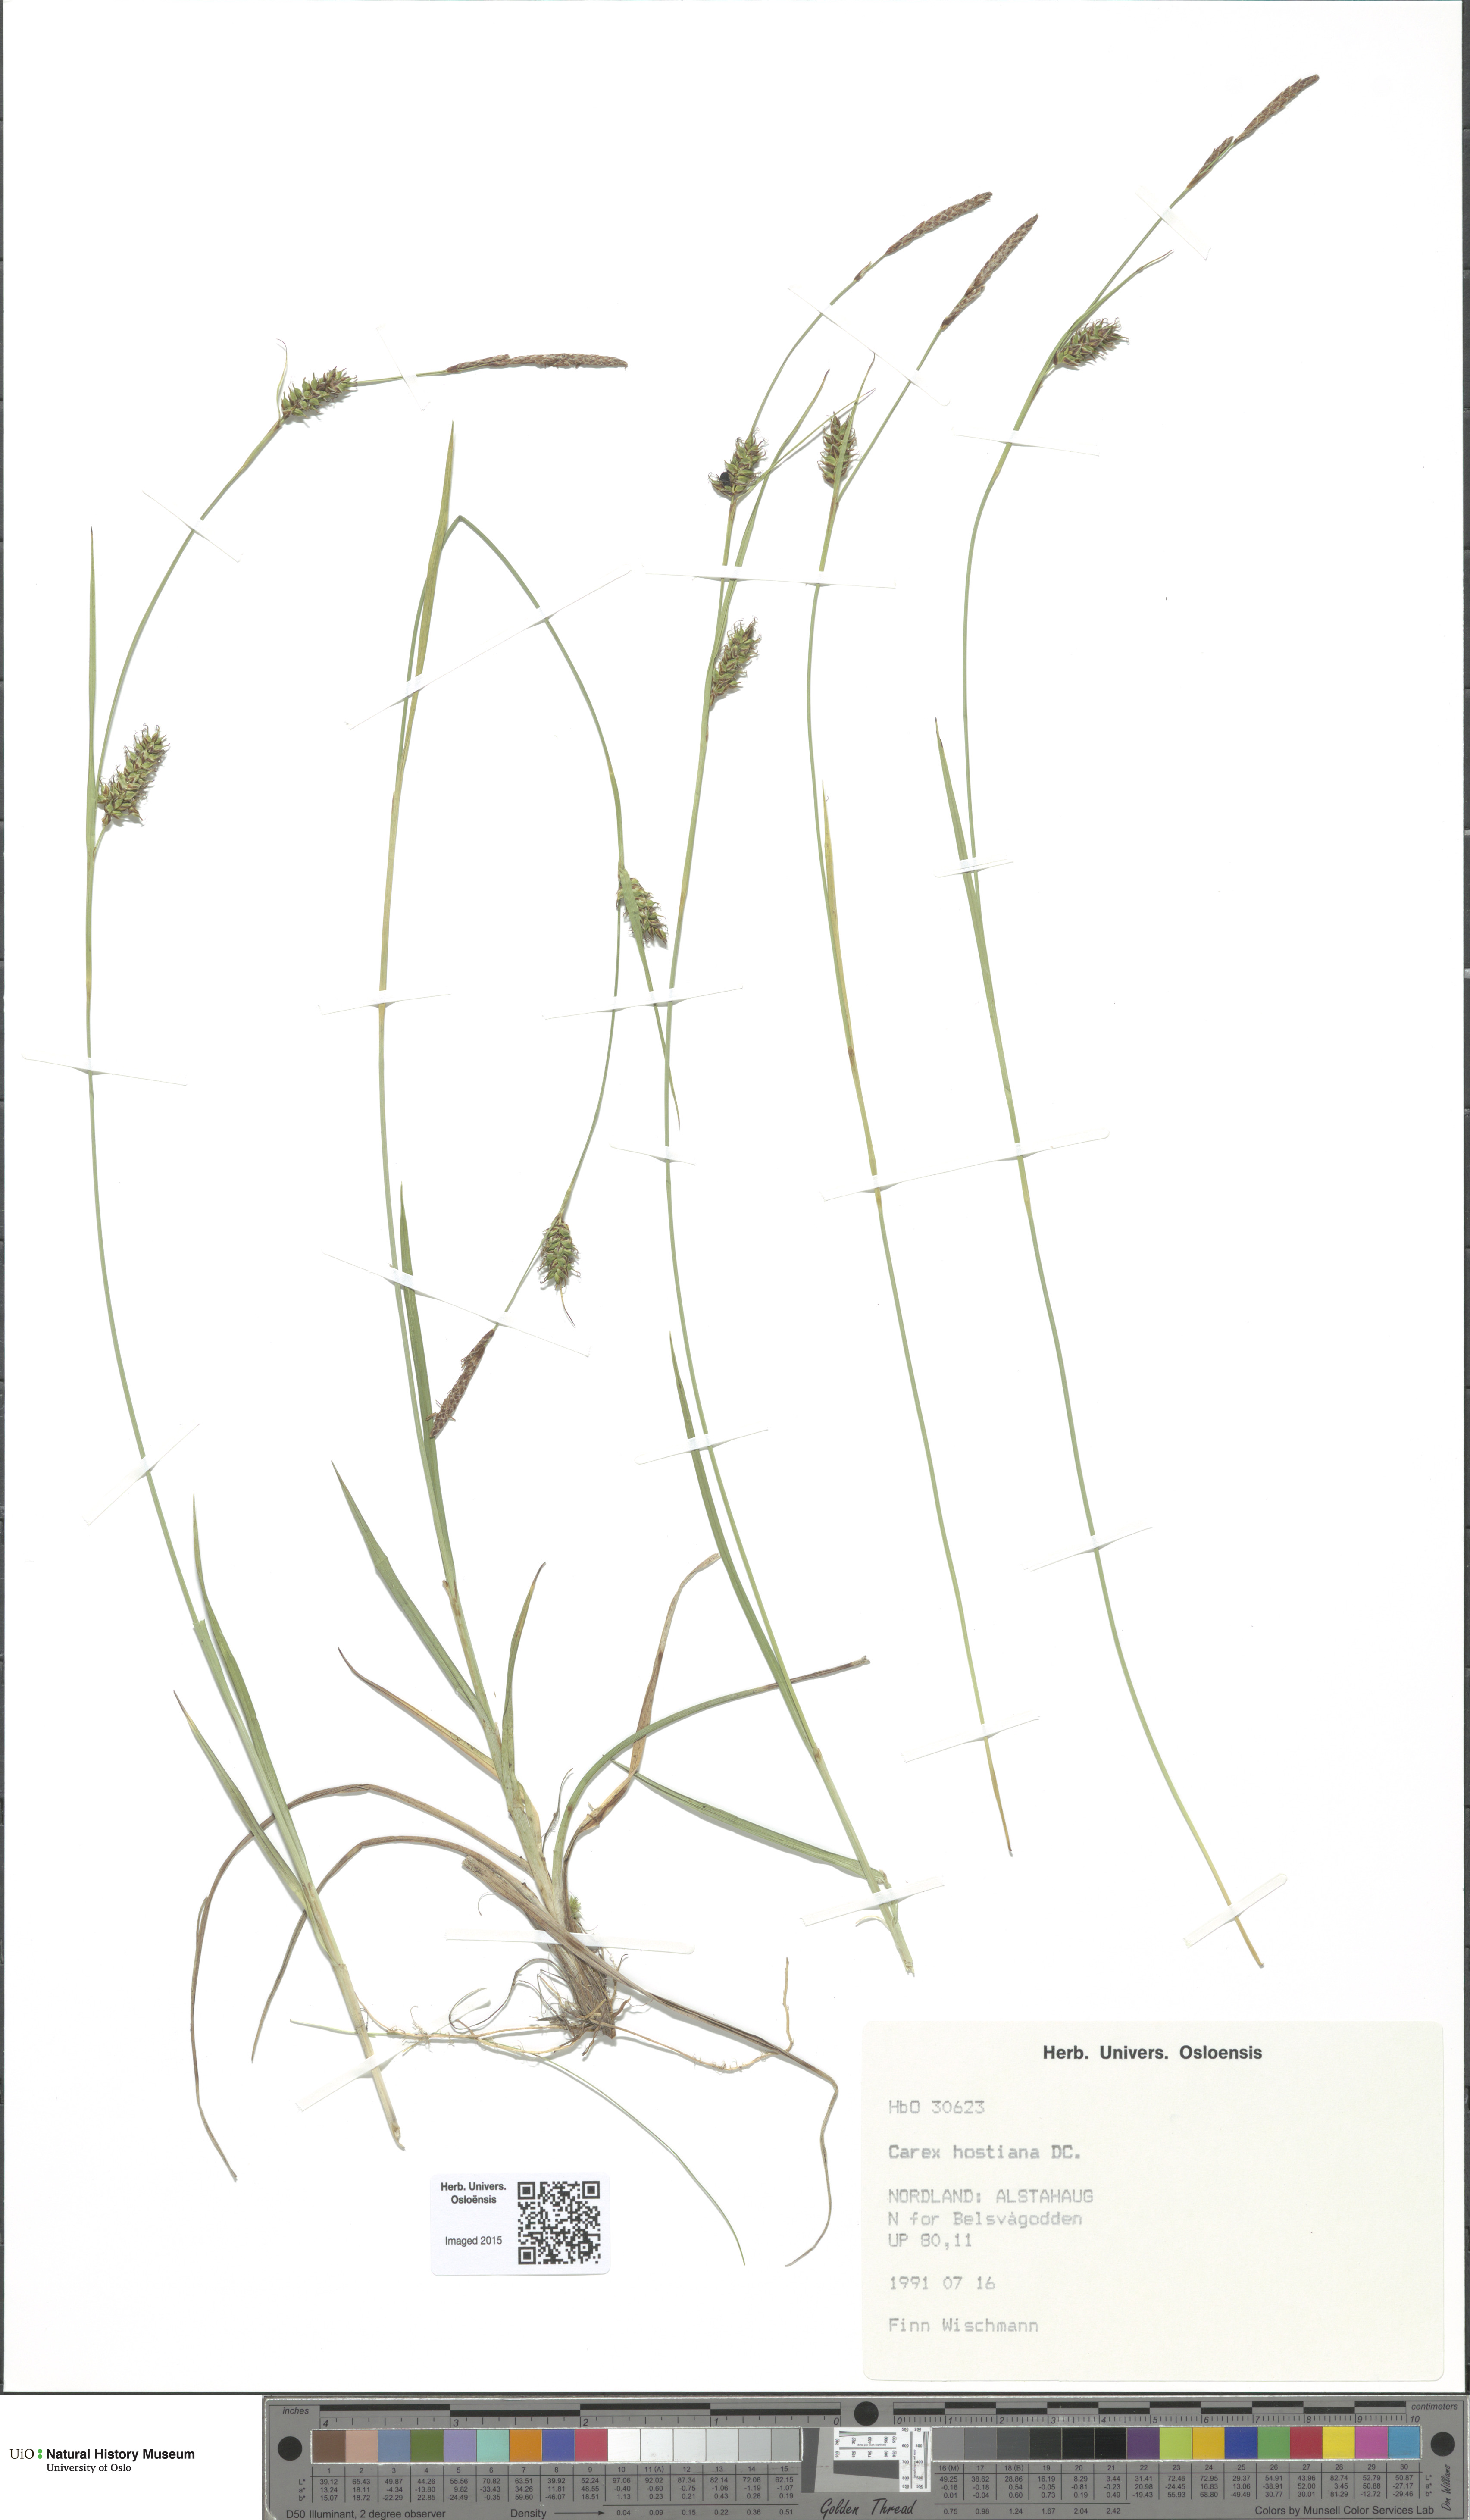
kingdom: Plantae
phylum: Tracheophyta
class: Liliopsida
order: Poales
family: Cyperaceae
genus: Carex
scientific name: Carex hostiana
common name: Tawny sedge
